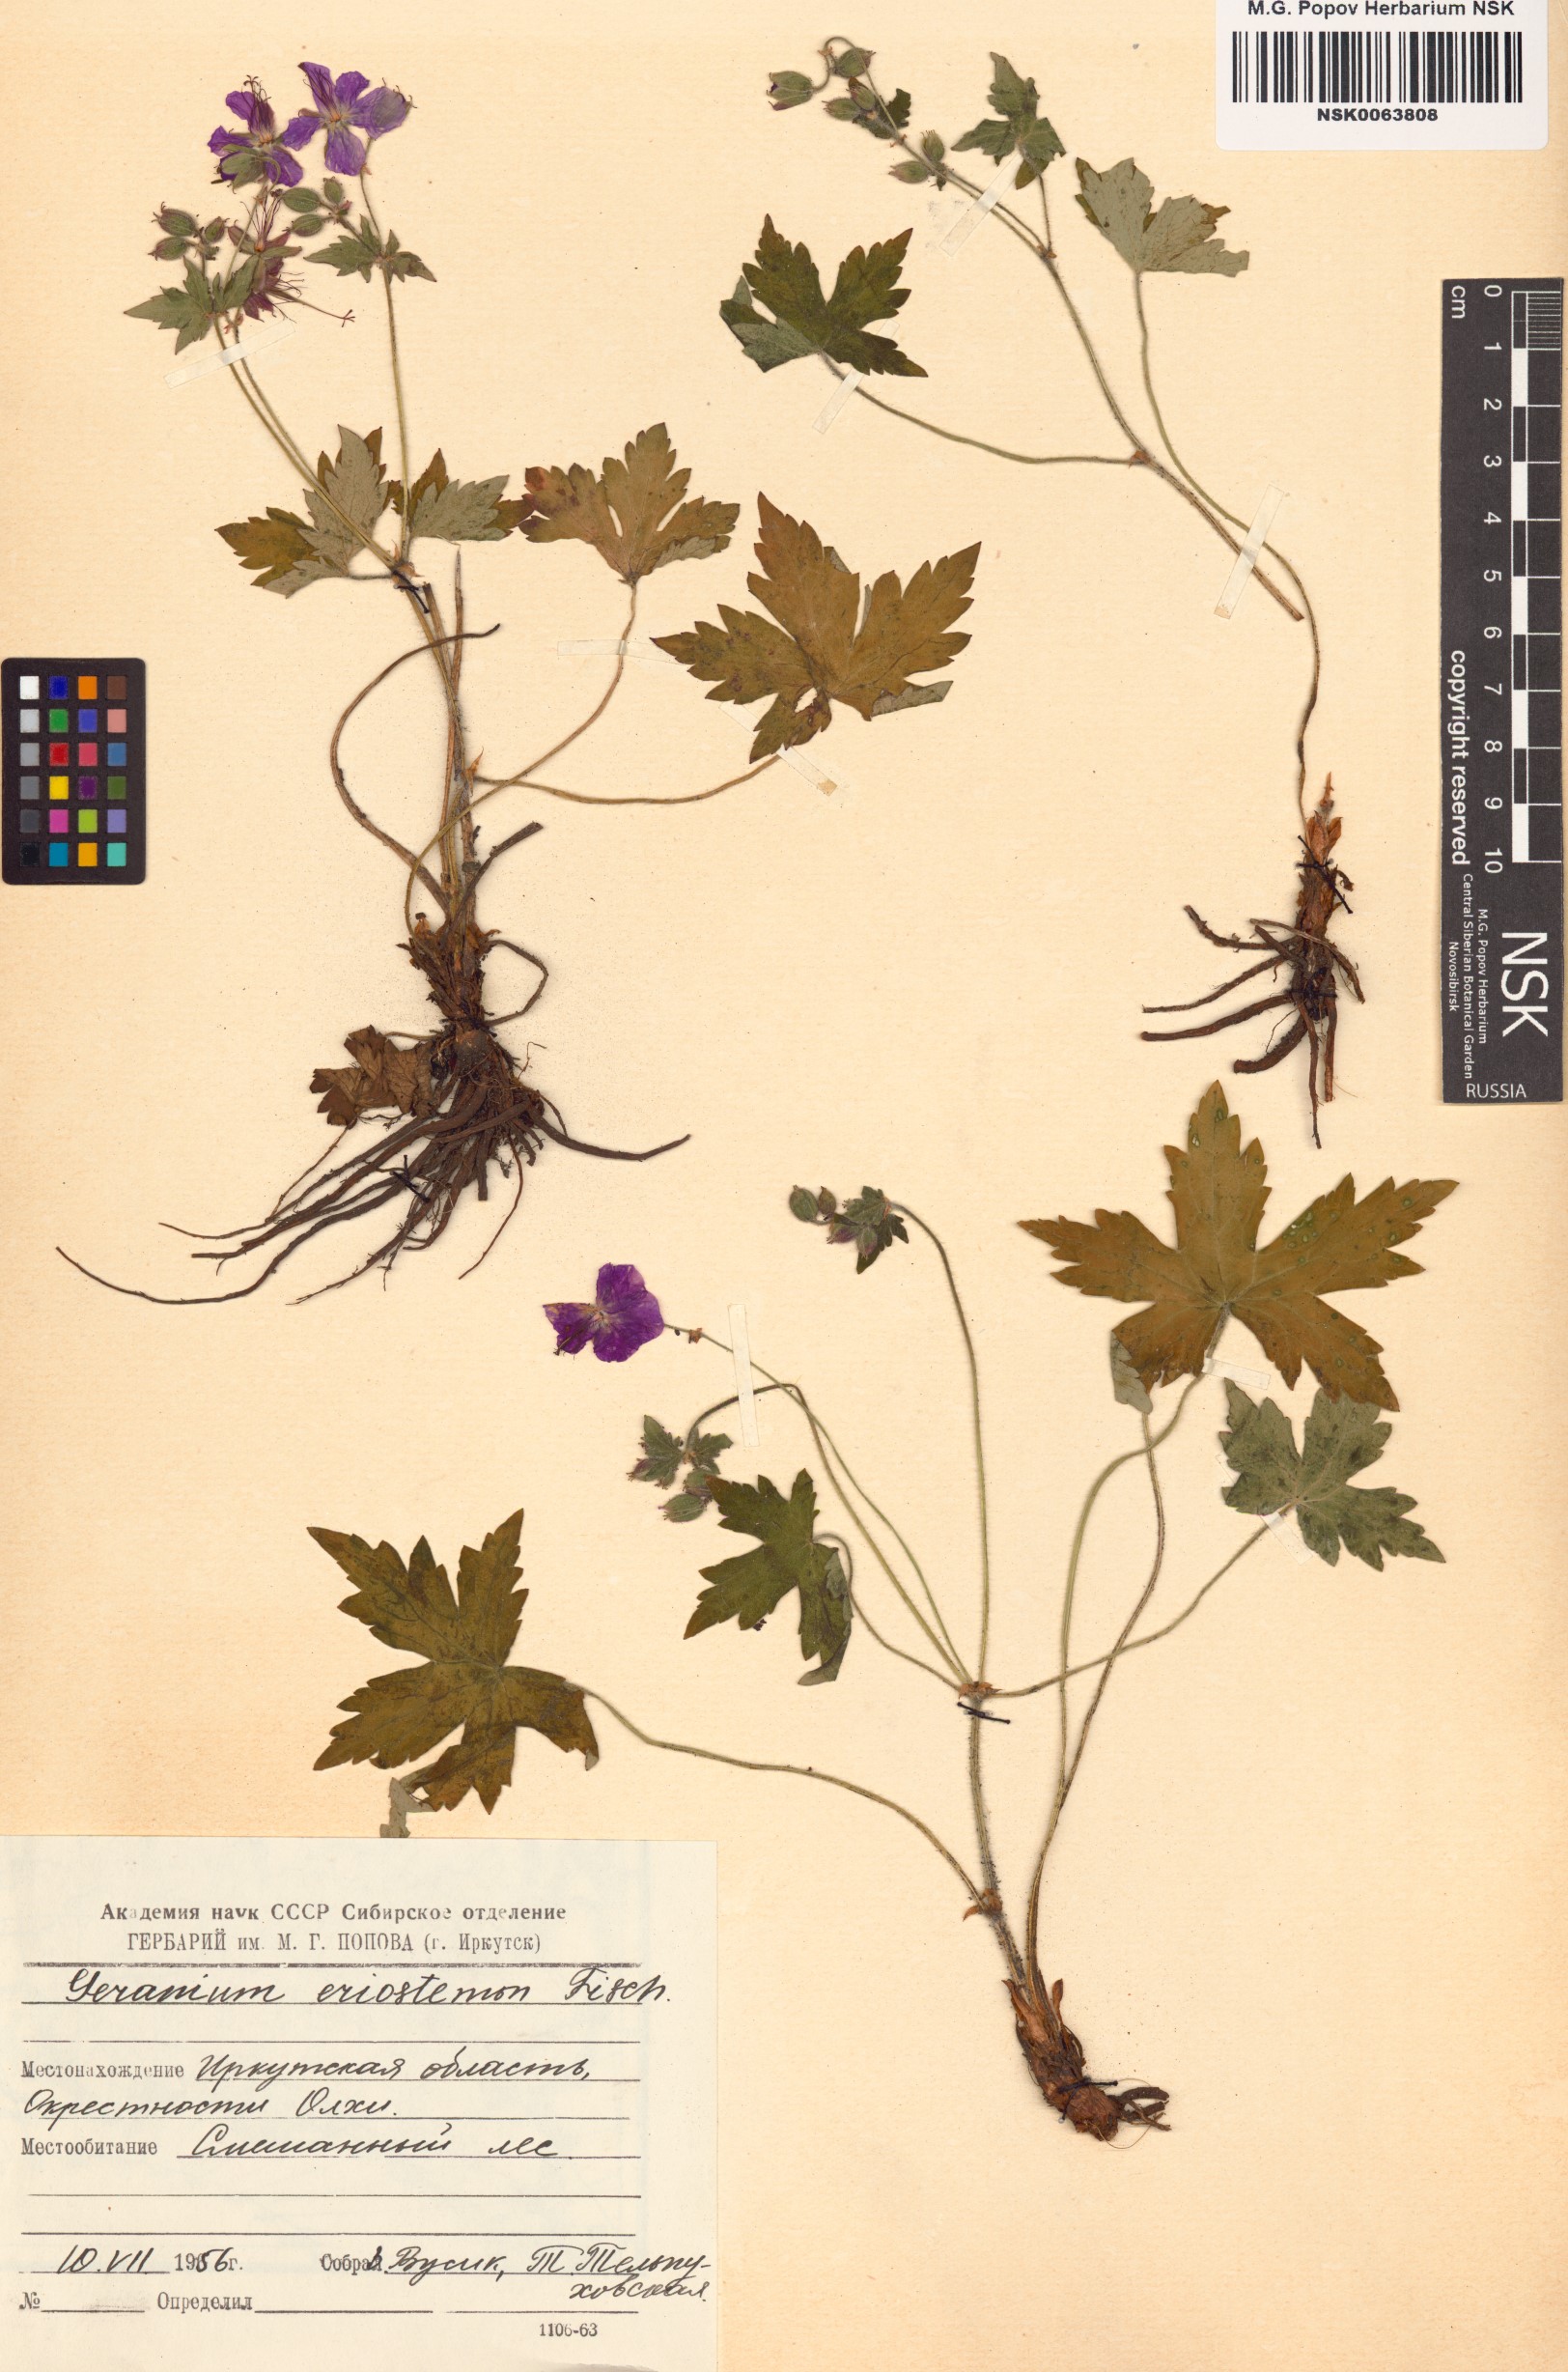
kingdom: Plantae
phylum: Tracheophyta
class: Magnoliopsida
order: Geraniales
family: Geraniaceae
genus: Geranium
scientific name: Geranium platyanthum
